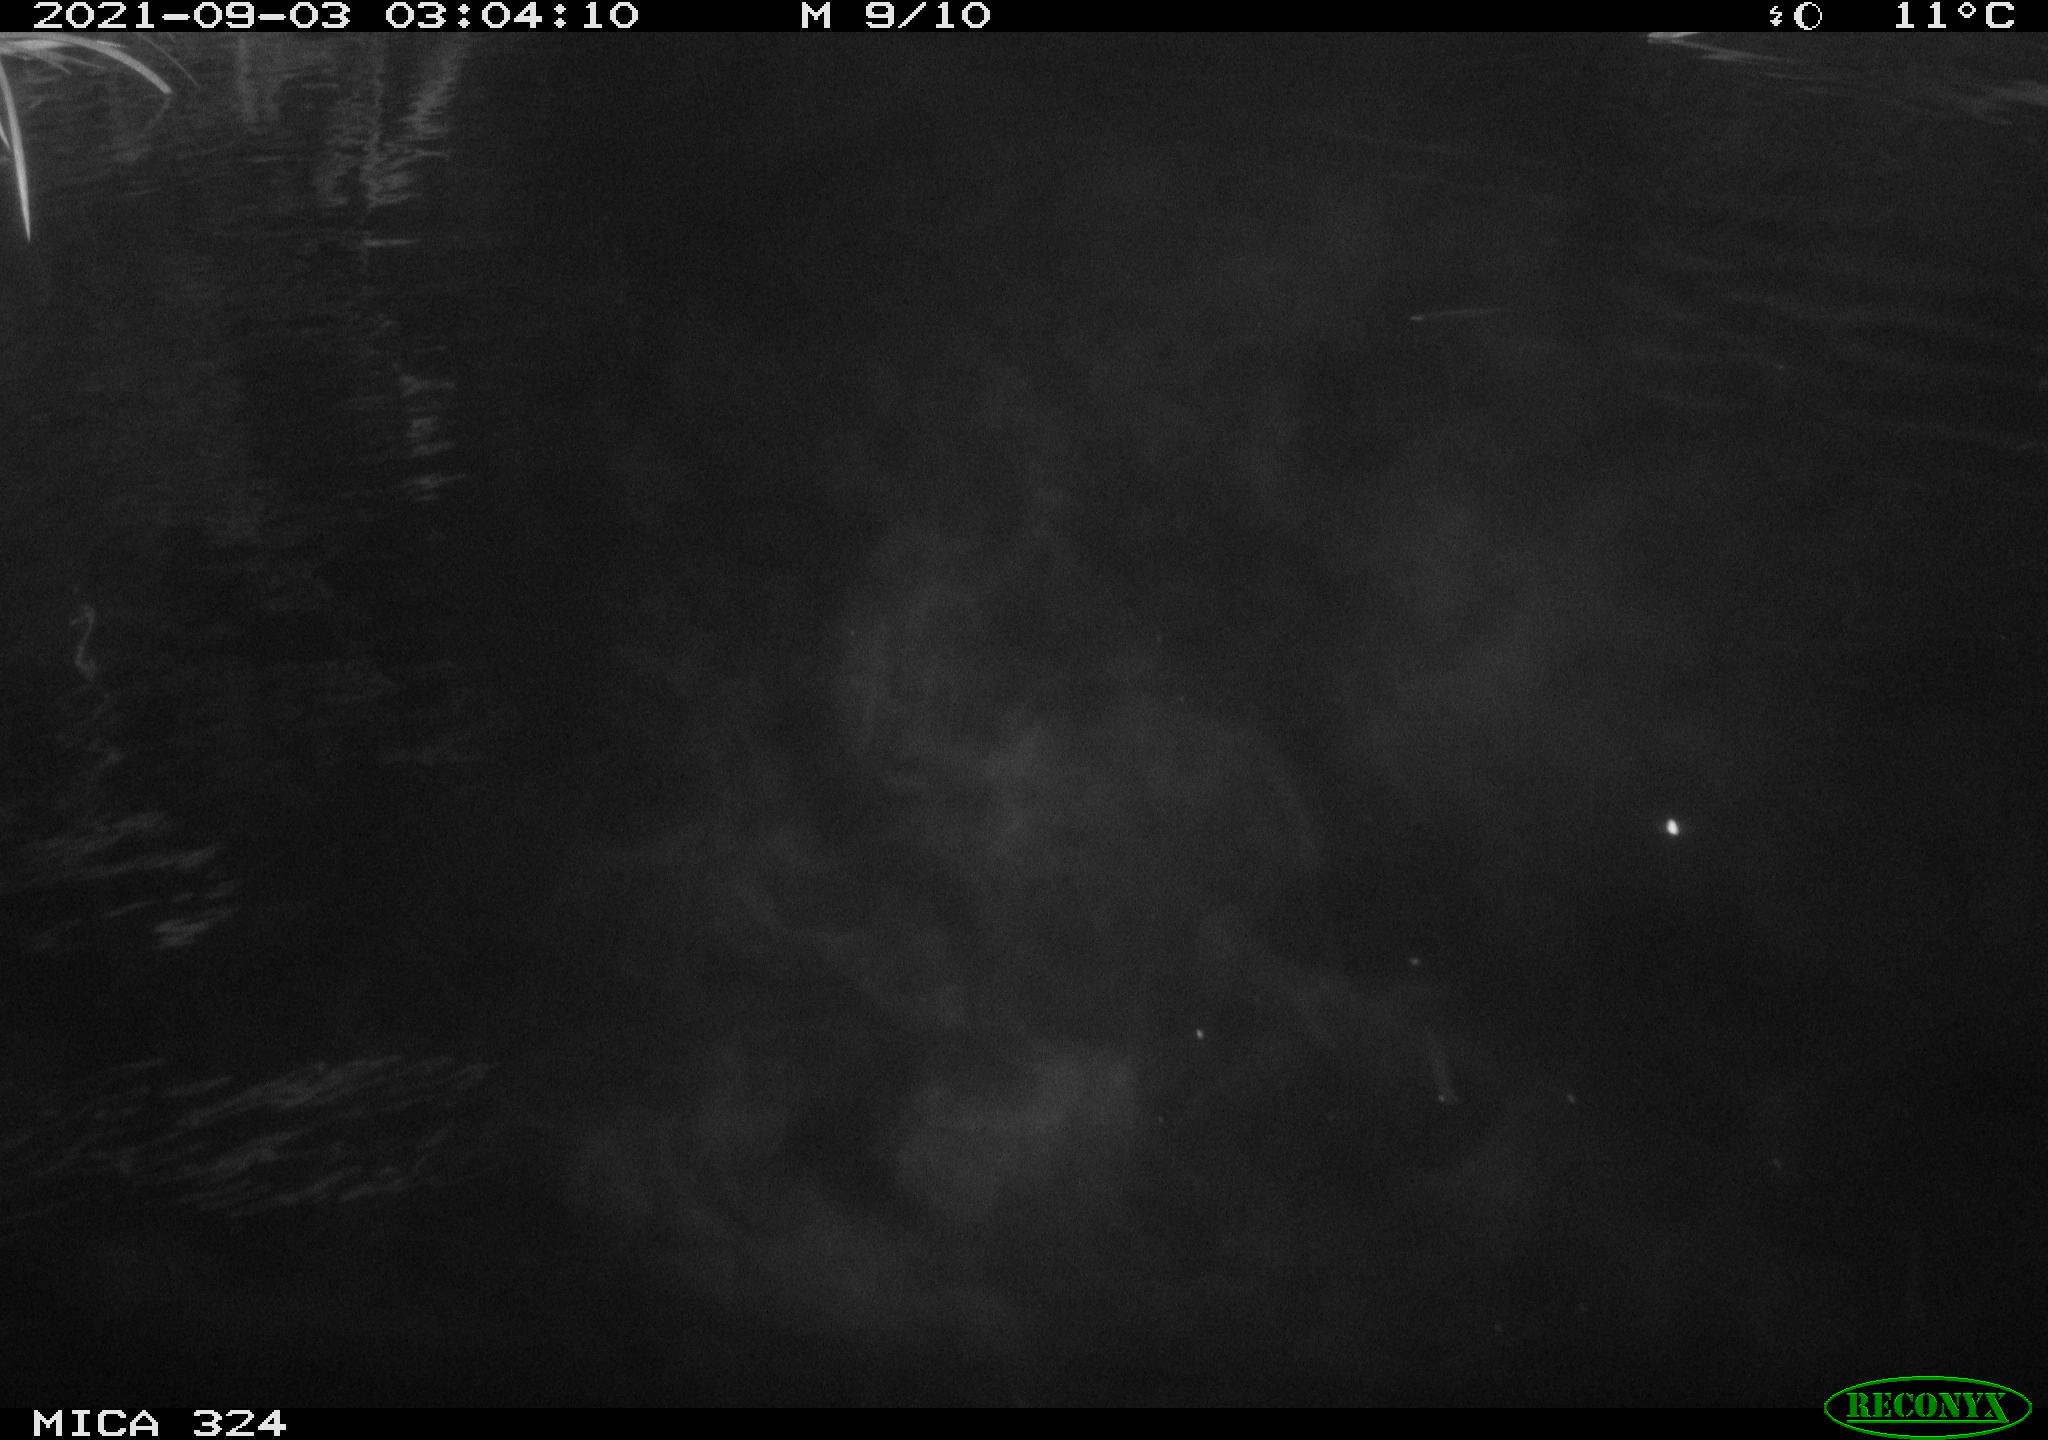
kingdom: Animalia
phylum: Chordata
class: Mammalia
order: Rodentia
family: Cricetidae
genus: Ondatra
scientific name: Ondatra zibethicus
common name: Muskrat
